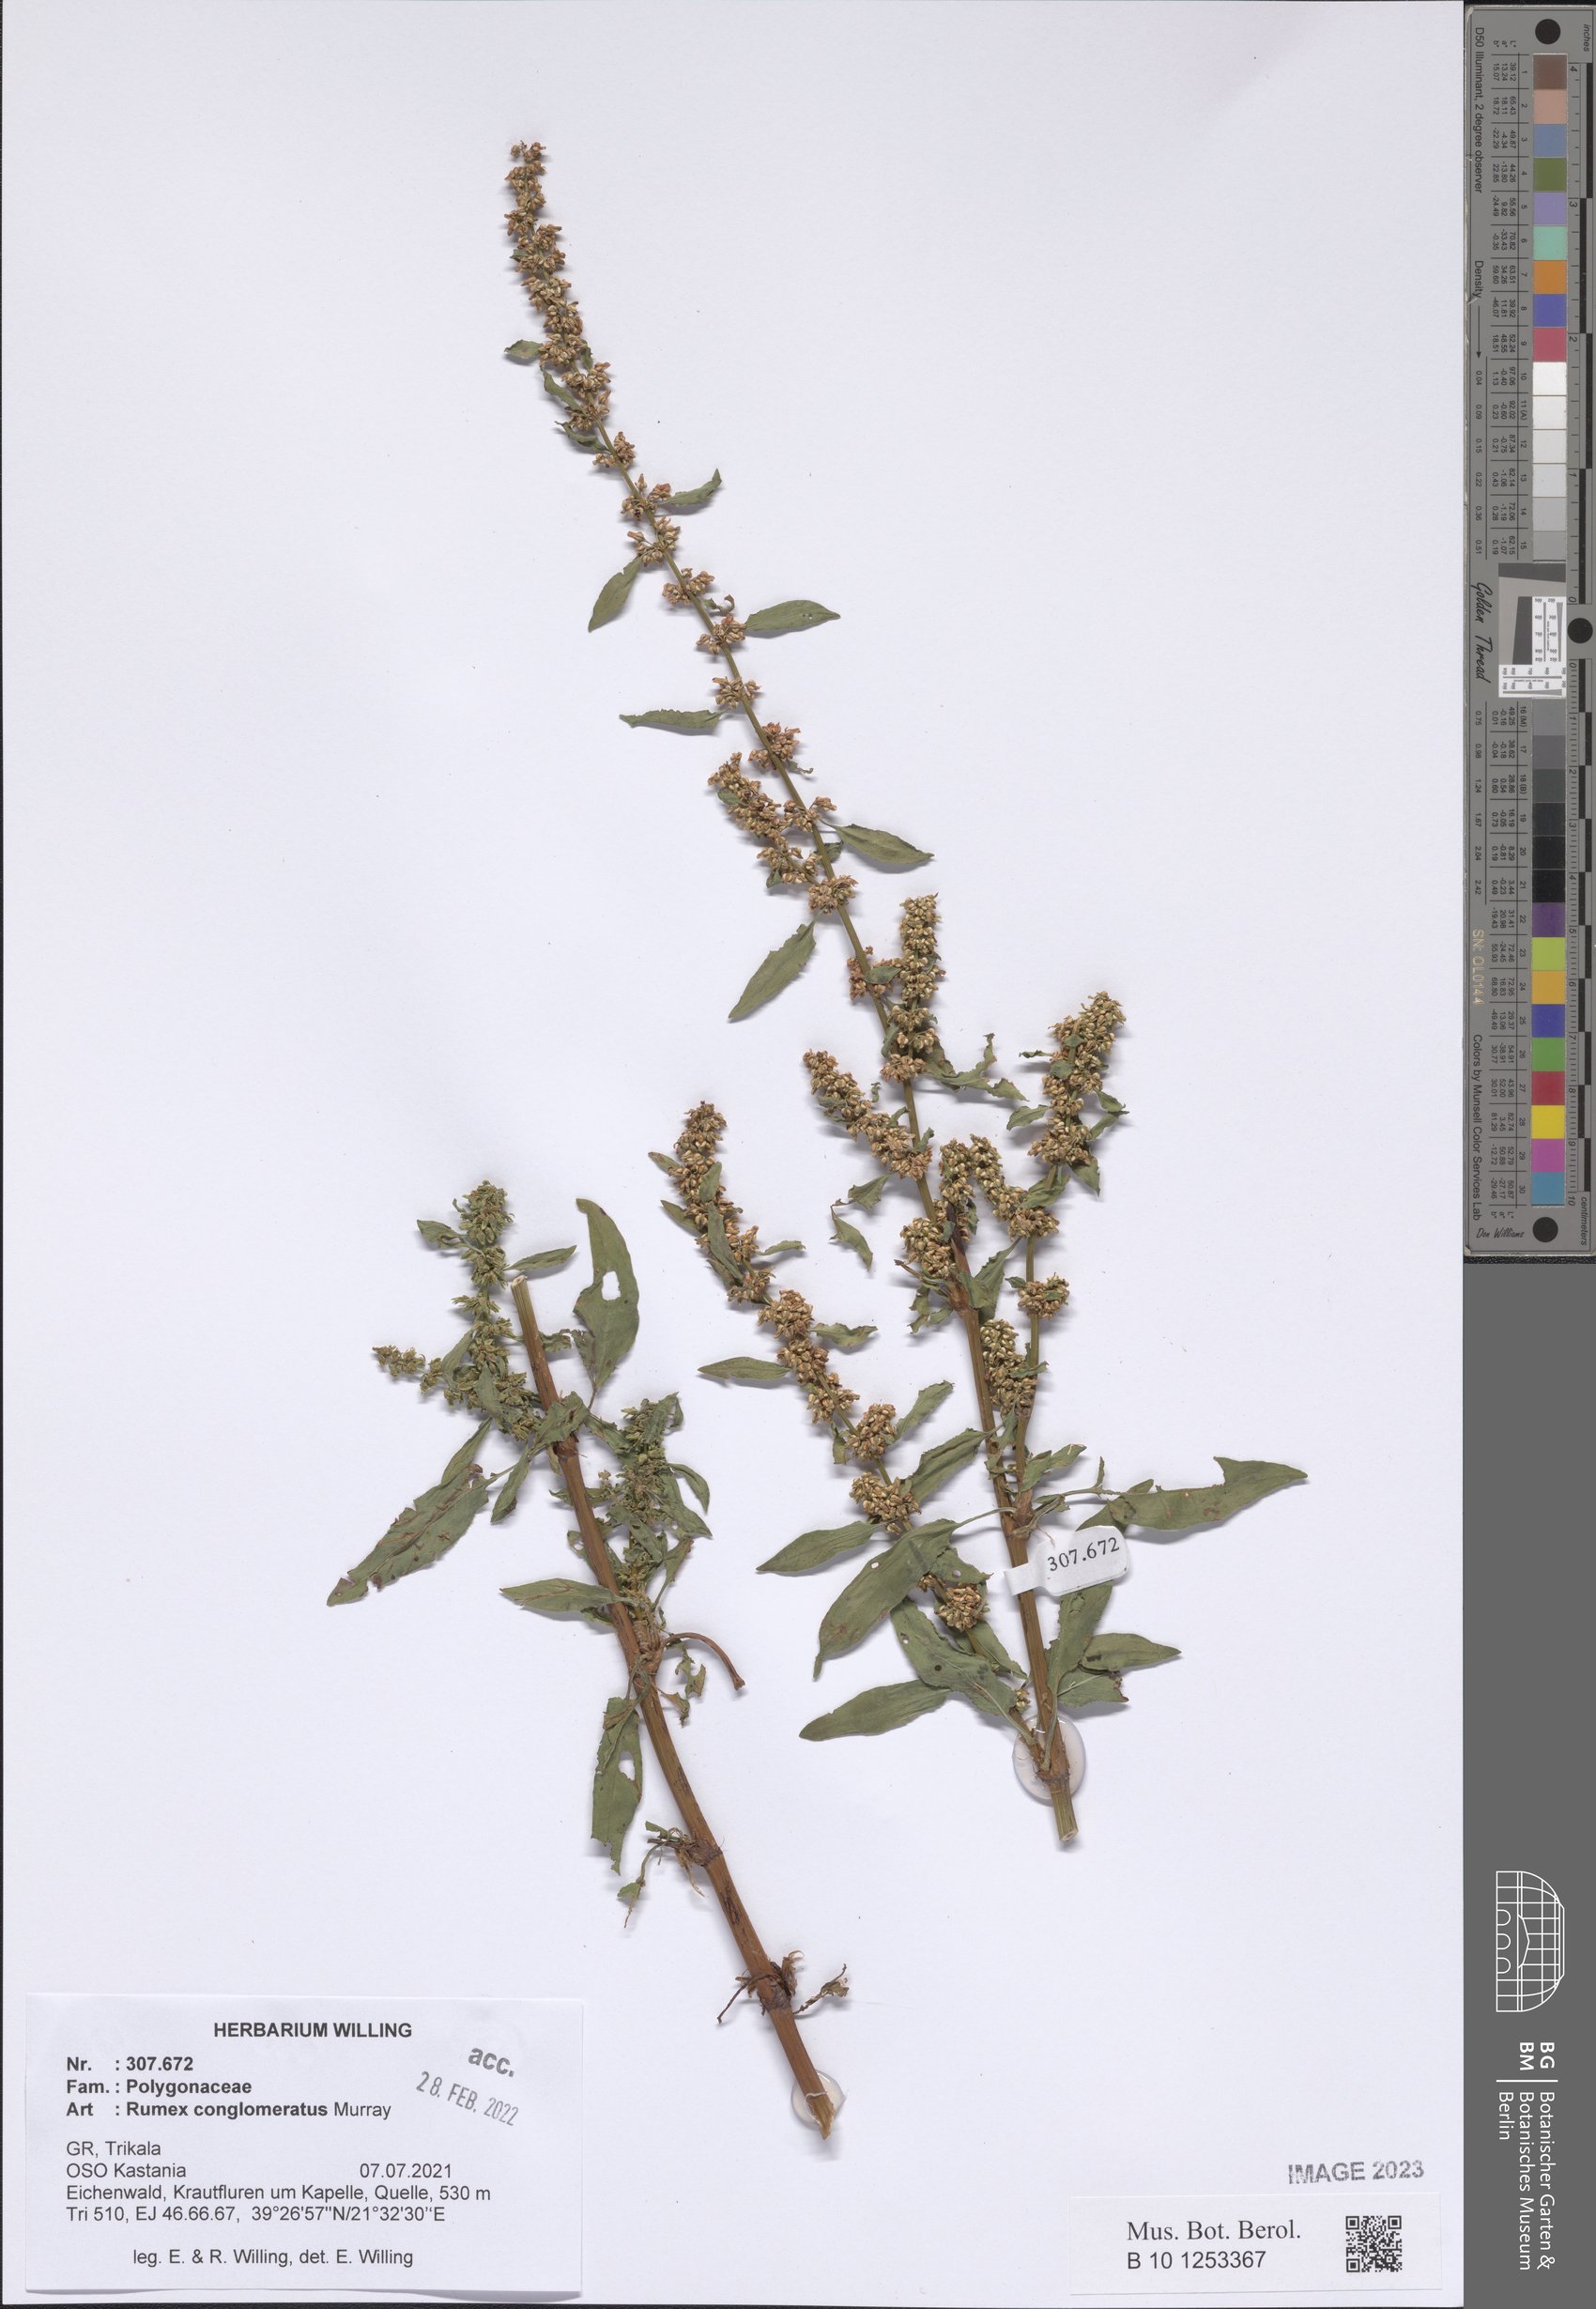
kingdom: Plantae
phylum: Tracheophyta
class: Magnoliopsida
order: Caryophyllales
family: Polygonaceae
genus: Rumex
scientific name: Rumex conglomeratus
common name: Clustered dock
